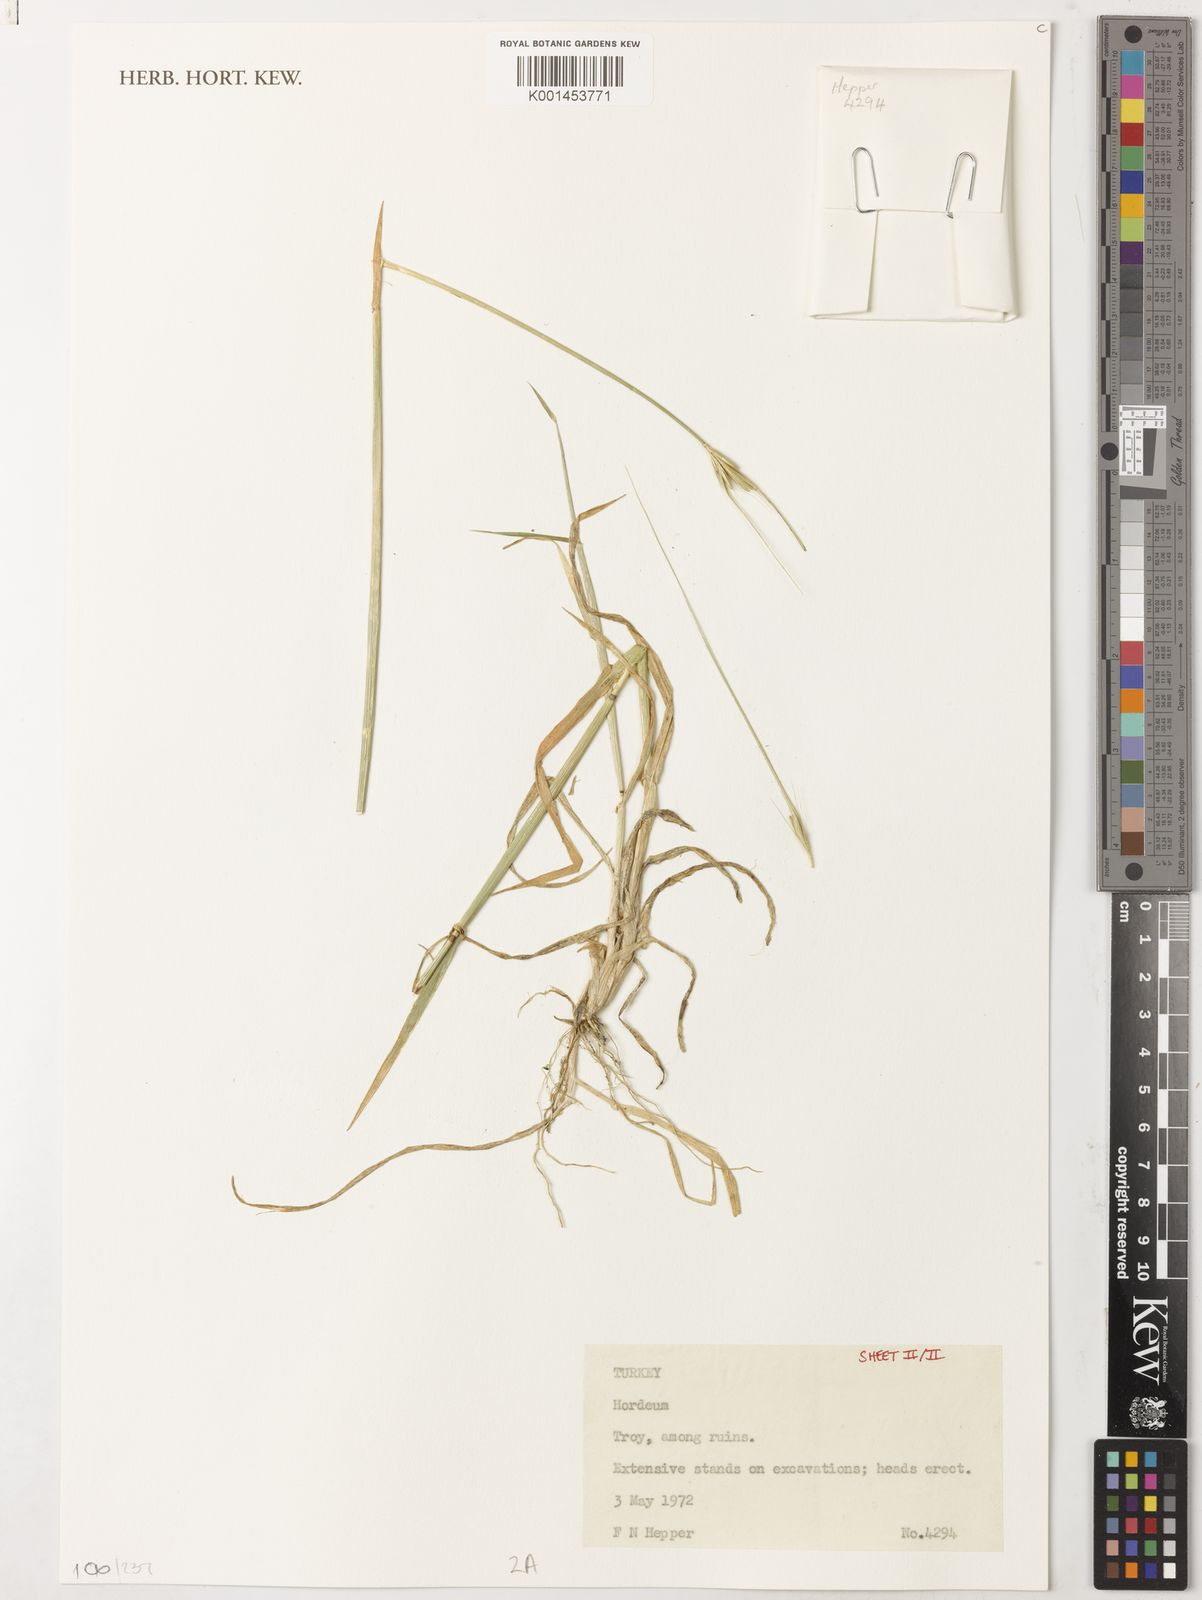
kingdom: Plantae
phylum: Tracheophyta
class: Liliopsida
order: Poales
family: Poaceae
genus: Hordeum
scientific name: Hordeum
